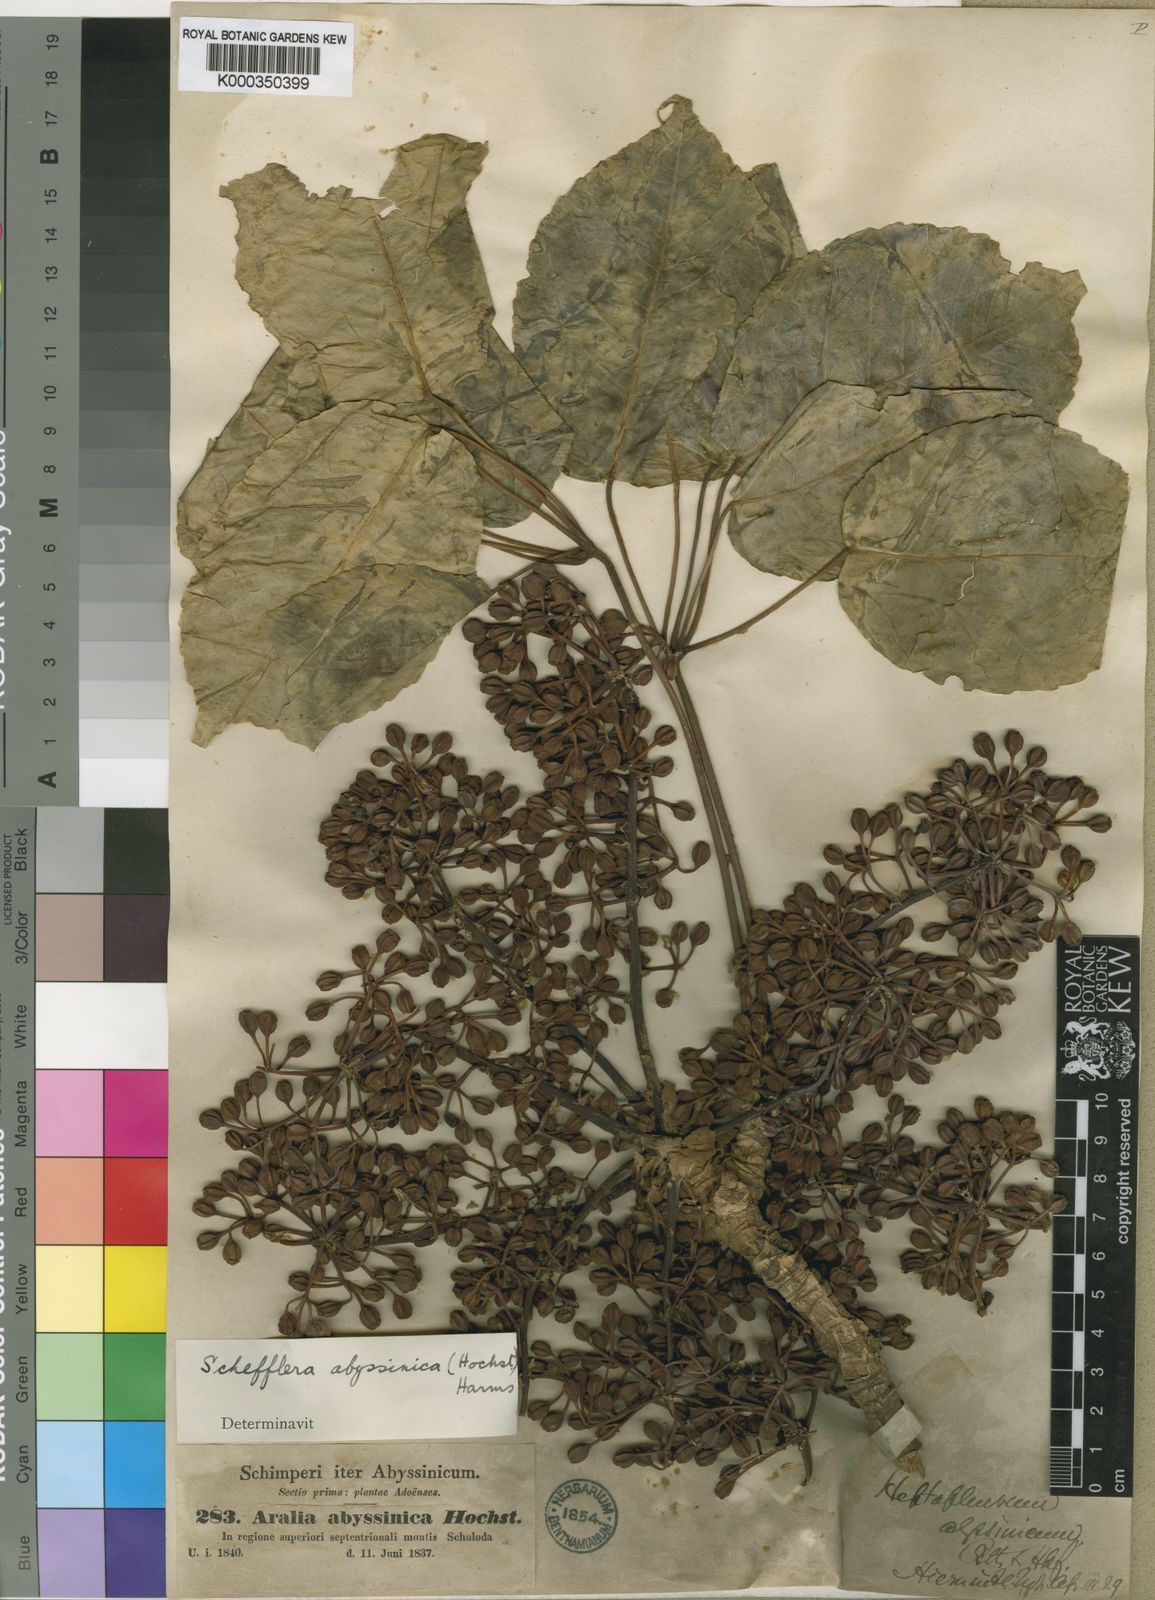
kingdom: Plantae
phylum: Tracheophyta
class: Magnoliopsida
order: Apiales
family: Araliaceae
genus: Astropanax
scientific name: Astropanax abyssinicum
